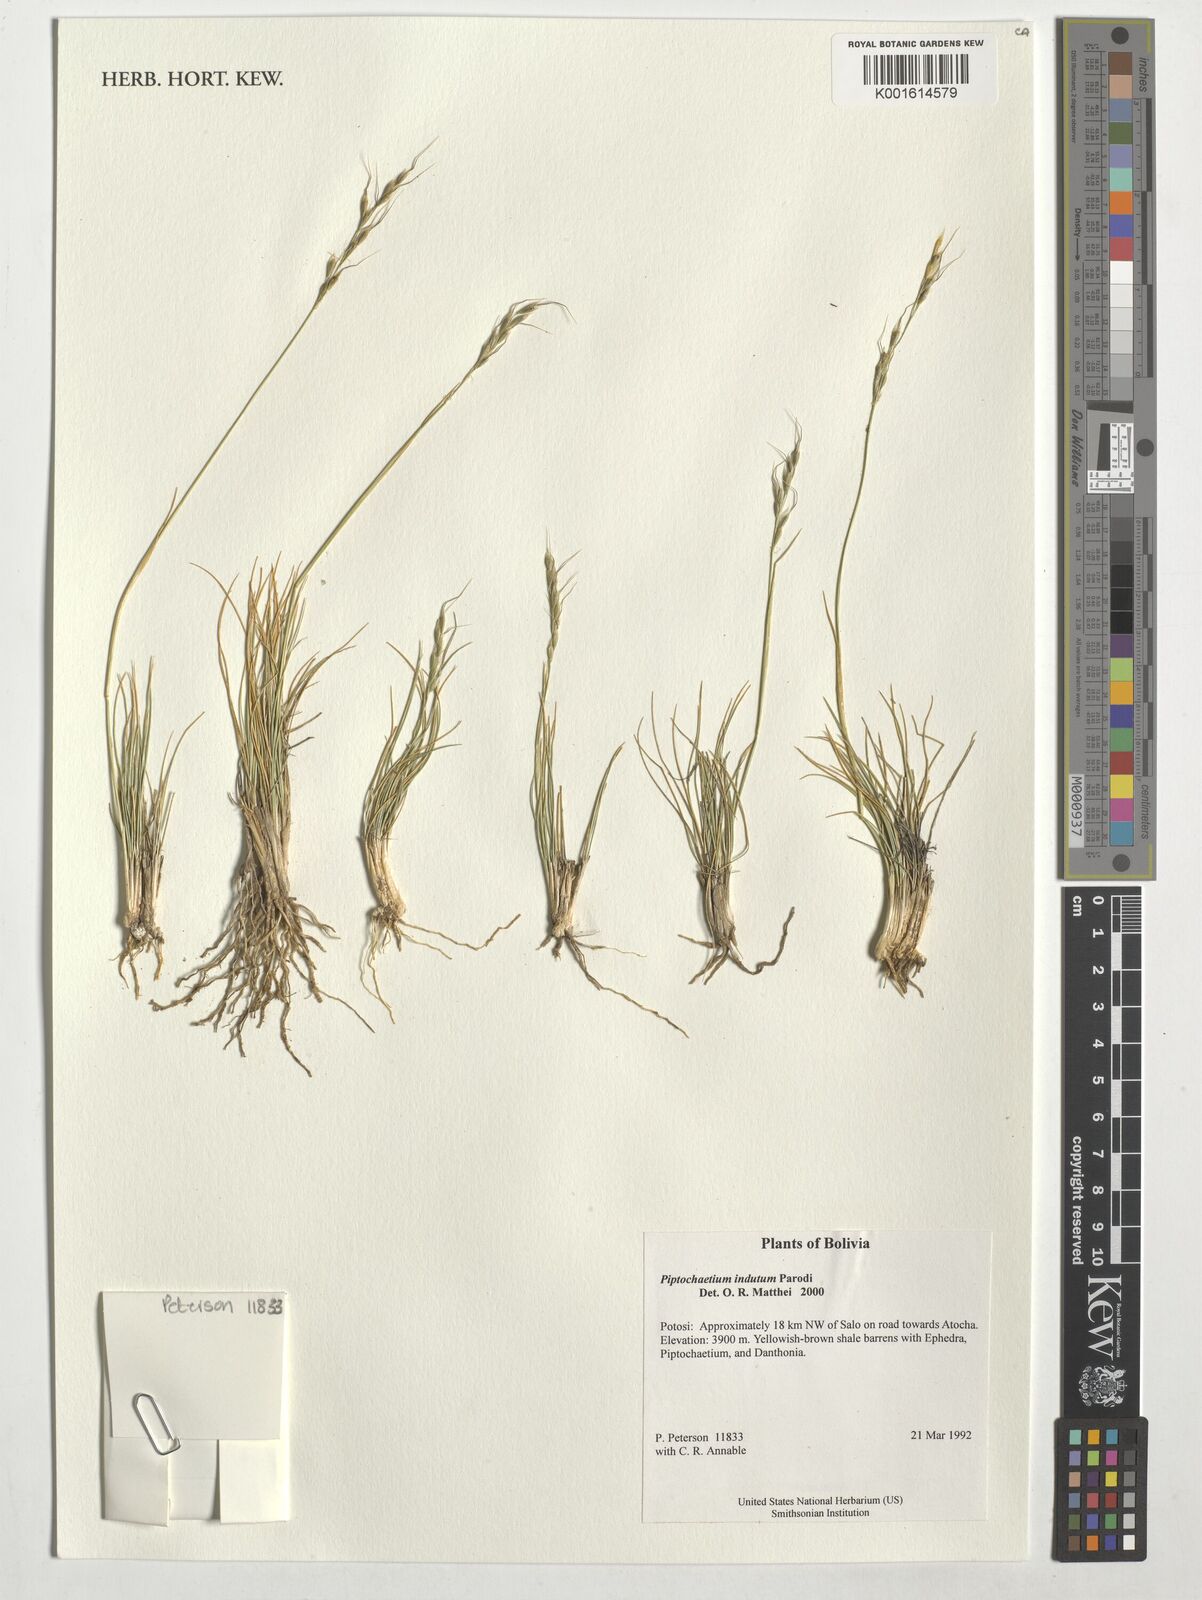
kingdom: Plantae
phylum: Tracheophyta
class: Liliopsida
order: Poales
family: Poaceae
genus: Piptochaetium
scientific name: Piptochaetium indutum
